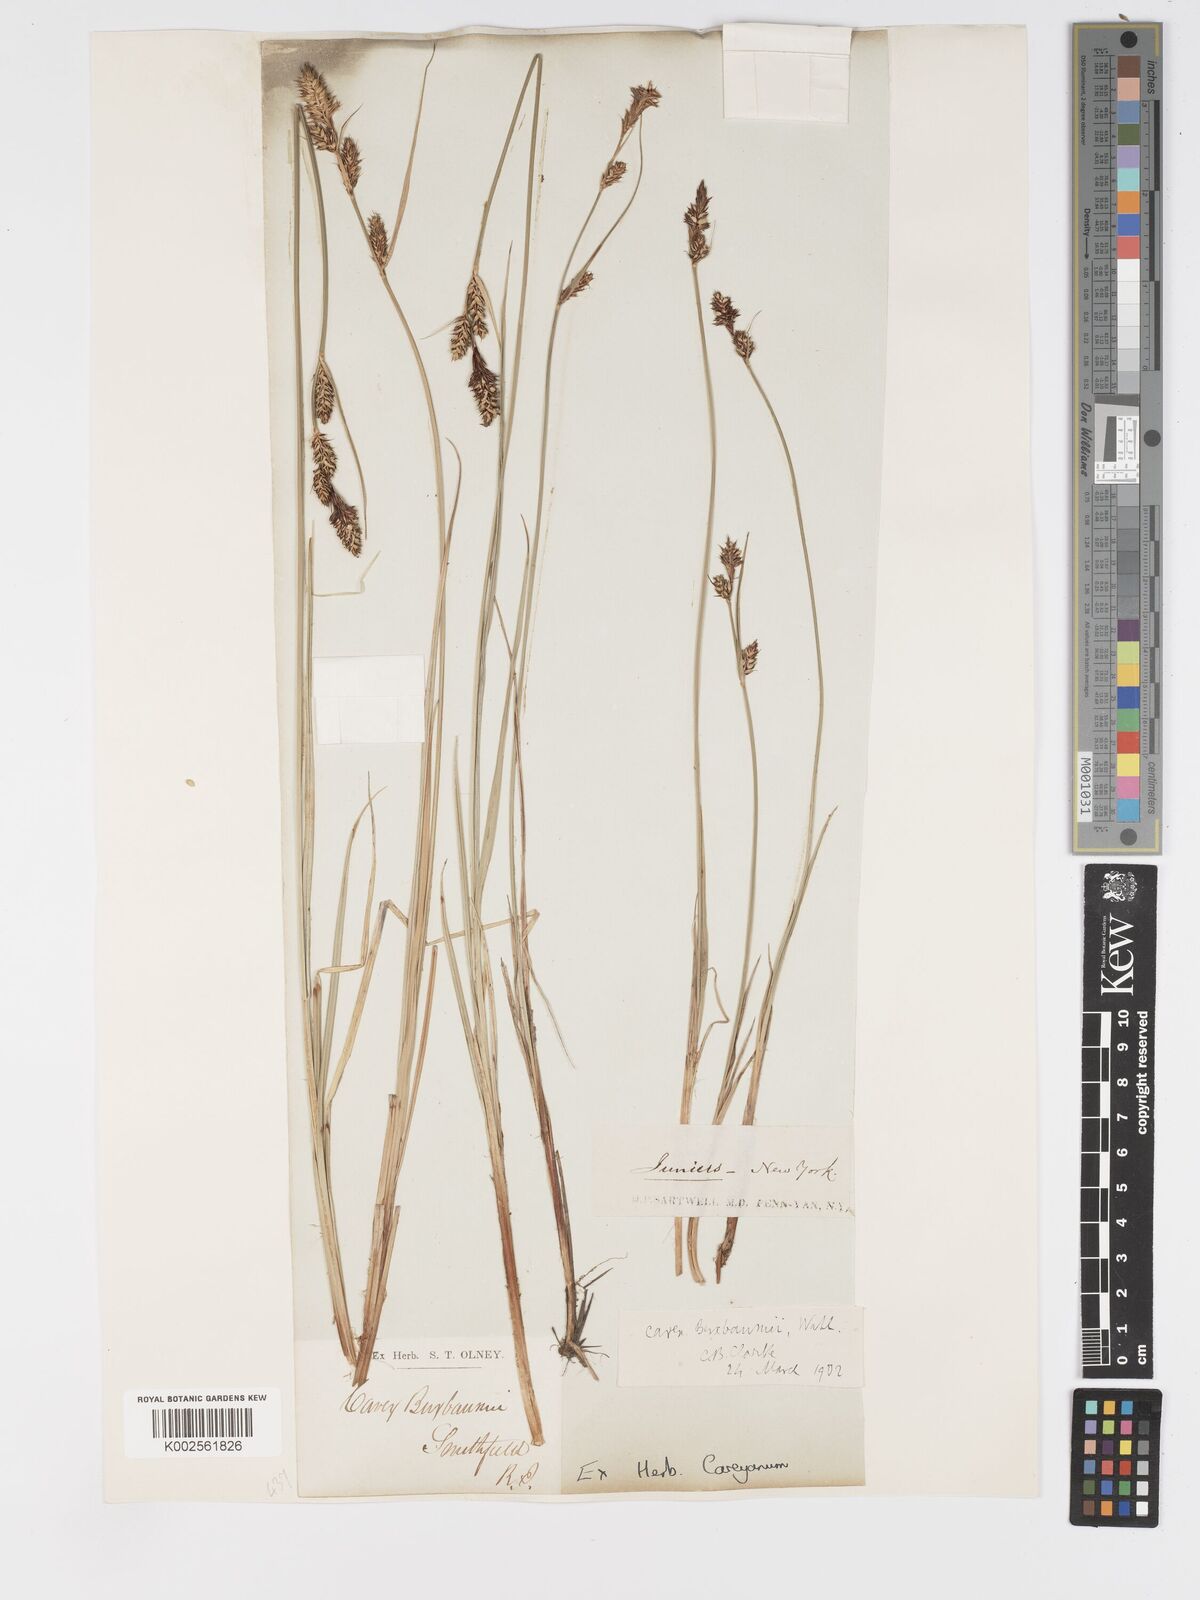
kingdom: Plantae
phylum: Tracheophyta
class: Liliopsida
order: Poales
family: Cyperaceae
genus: Carex
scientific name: Carex buxbaumii
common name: Club sedge
